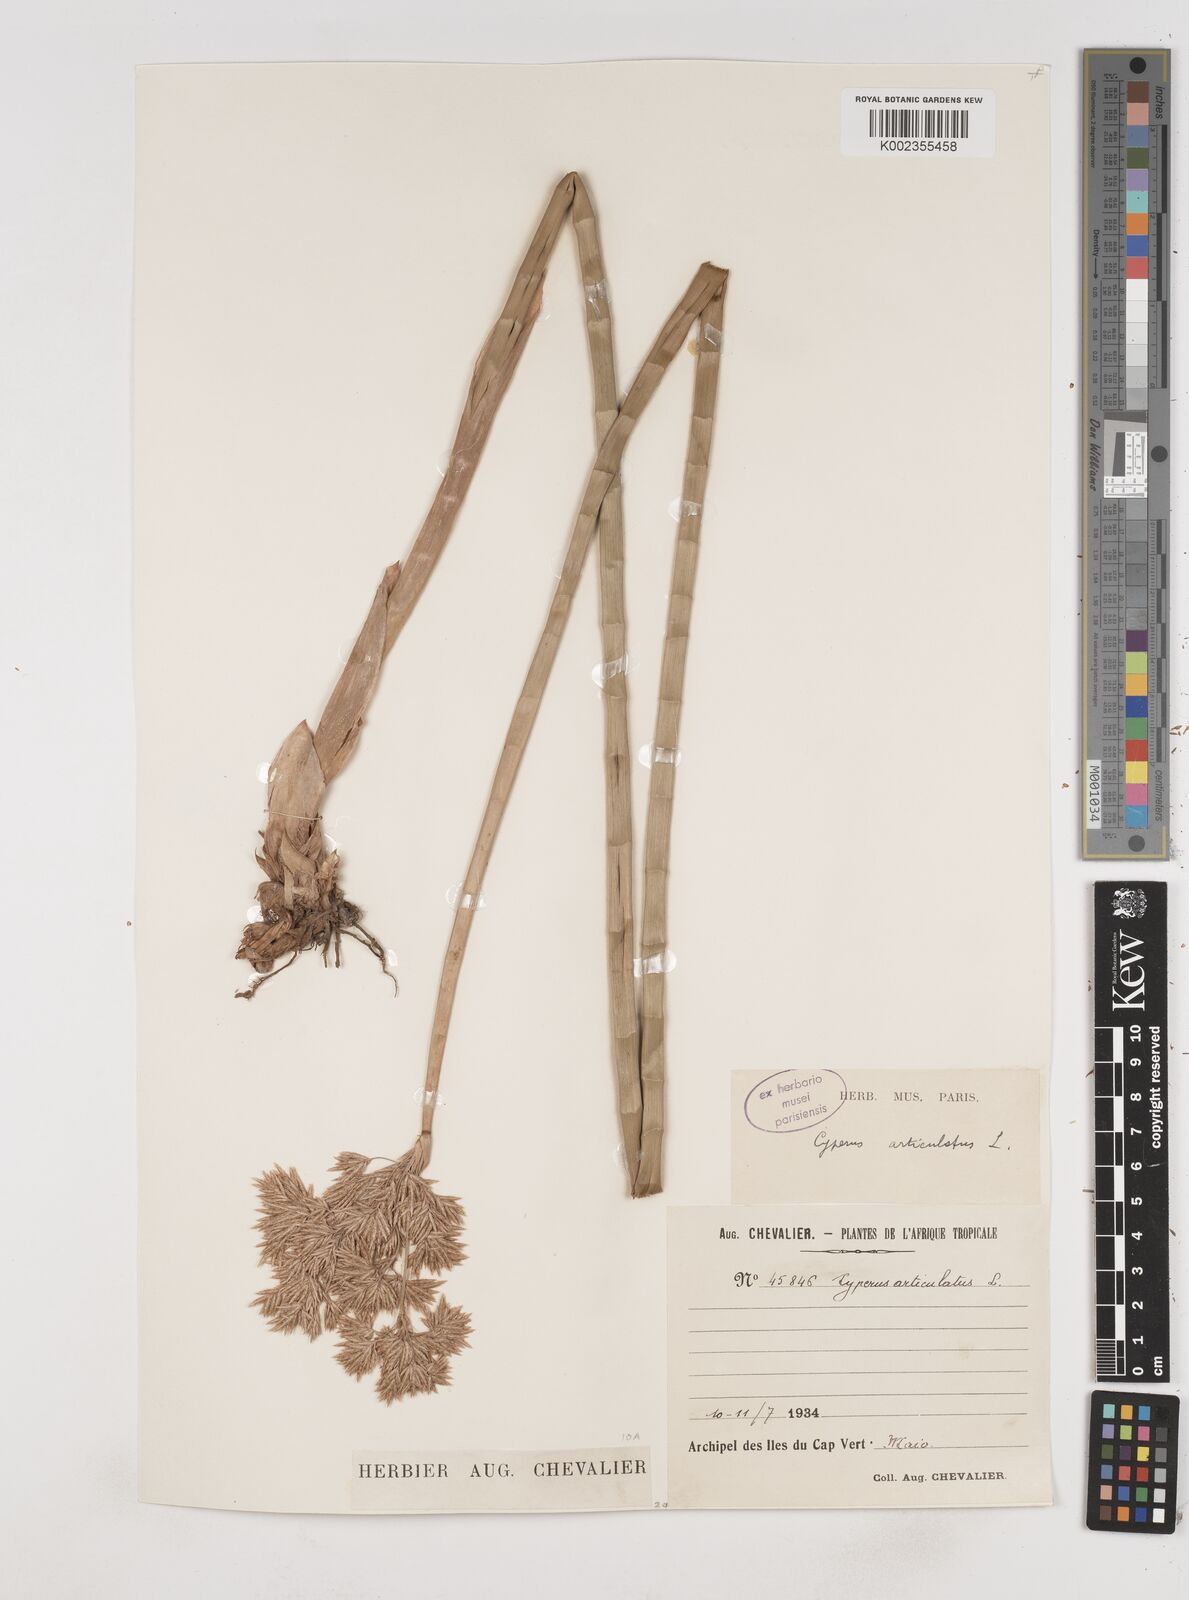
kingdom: Plantae
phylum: Tracheophyta
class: Liliopsida
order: Poales
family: Cyperaceae
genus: Cyperus
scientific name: Cyperus articulatus
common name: Jointed flatsedge
